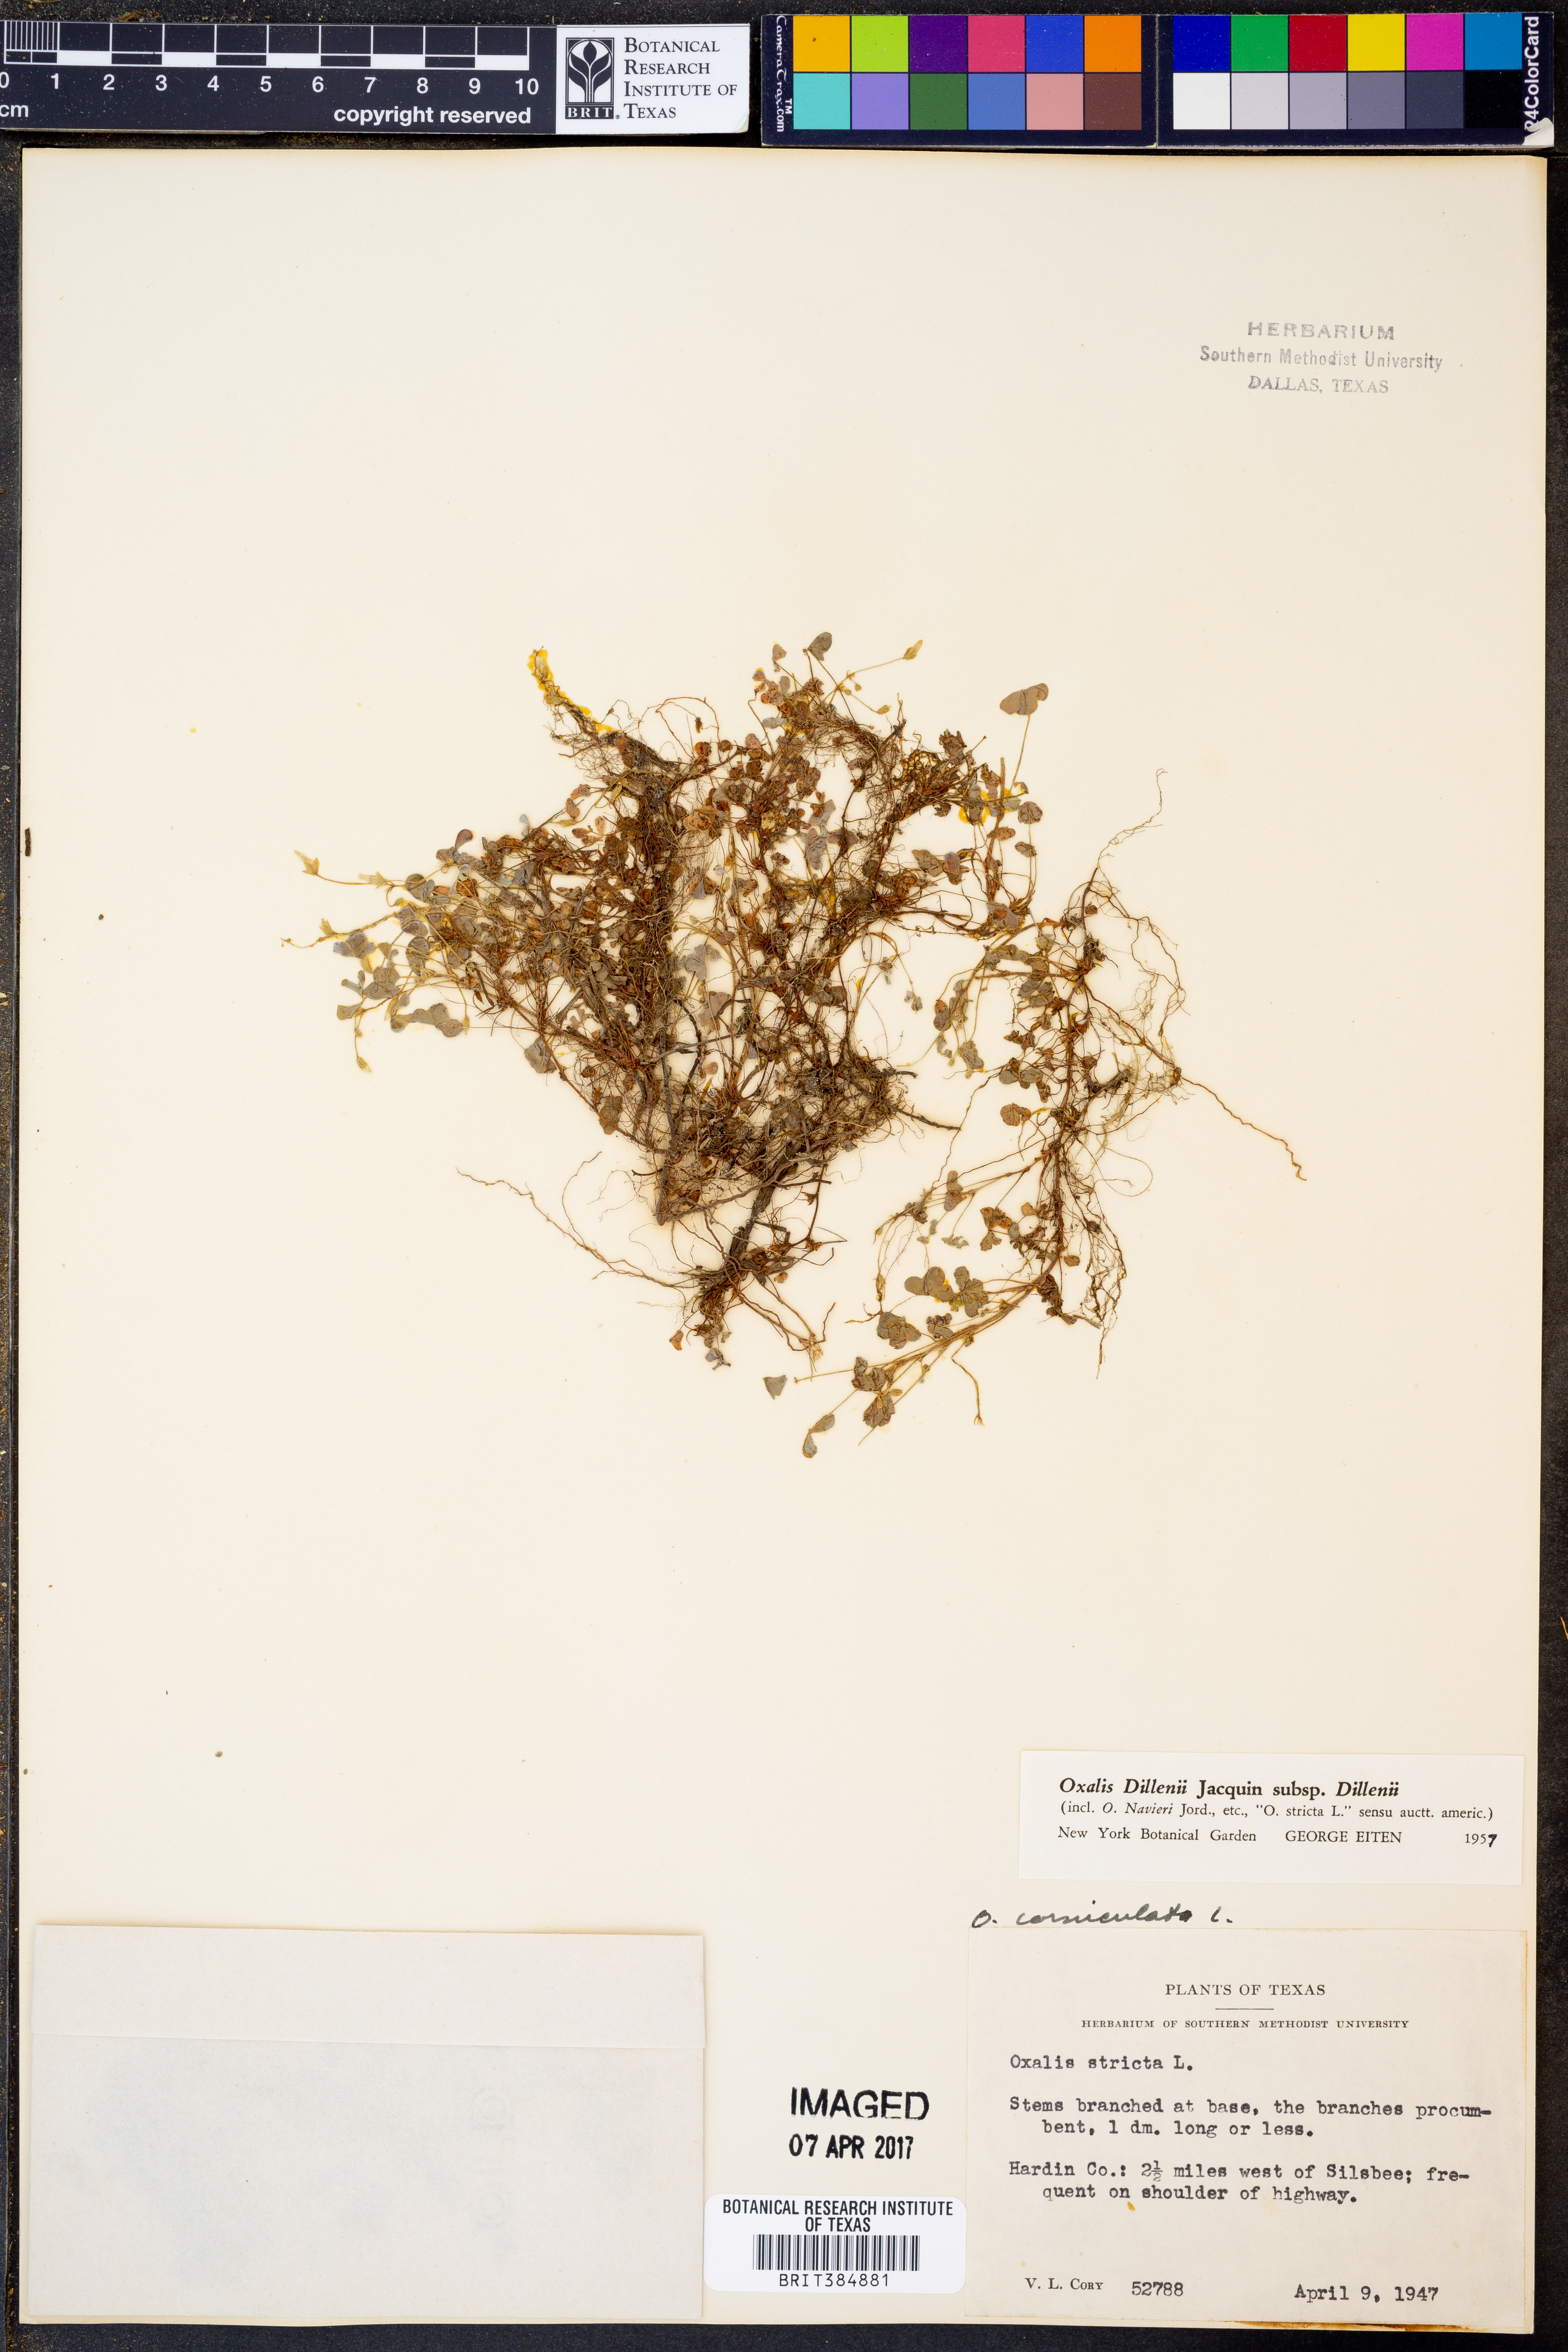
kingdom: Plantae
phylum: Tracheophyta
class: Magnoliopsida
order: Oxalidales
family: Oxalidaceae
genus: Oxalis
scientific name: Oxalis dillenii
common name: Sussex yellow-sorrel
